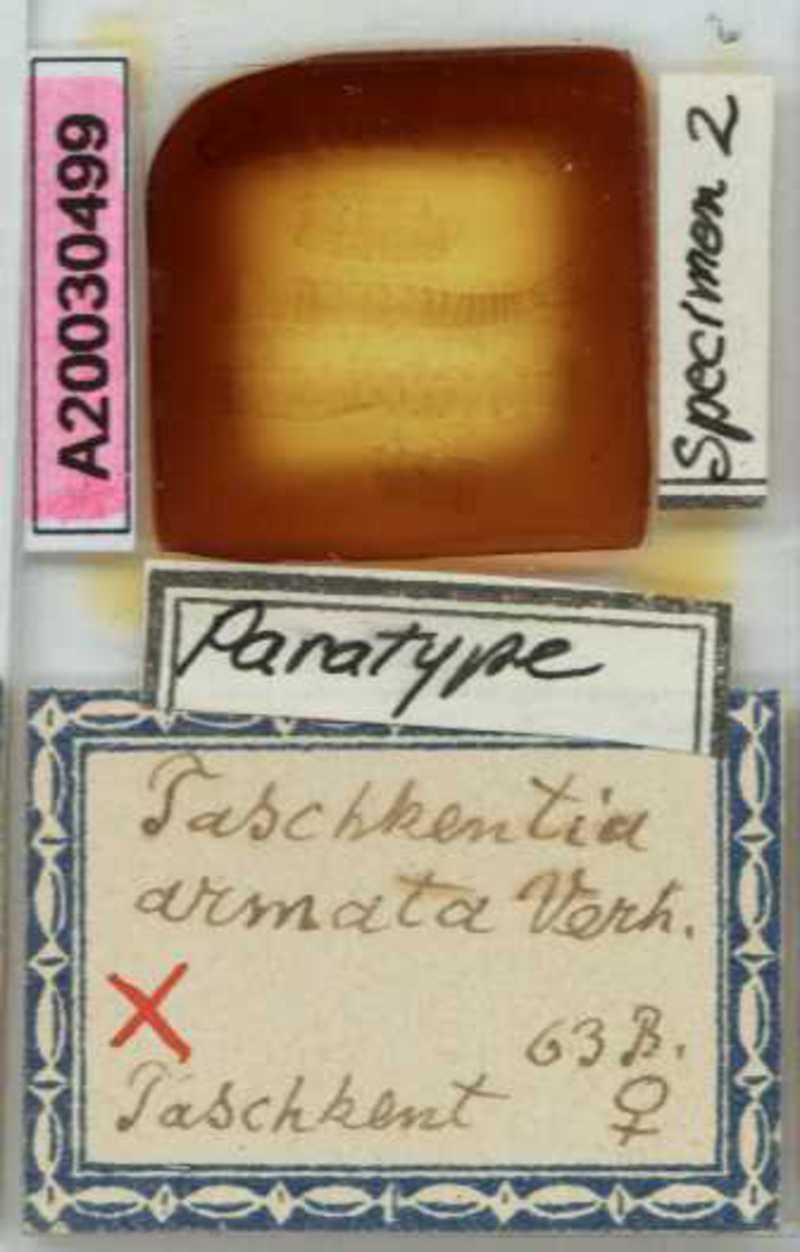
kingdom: Animalia
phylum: Arthropoda
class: Chilopoda
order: Geophilomorpha
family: Geophilidae
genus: Taschkentia
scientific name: Taschkentia parthorum
